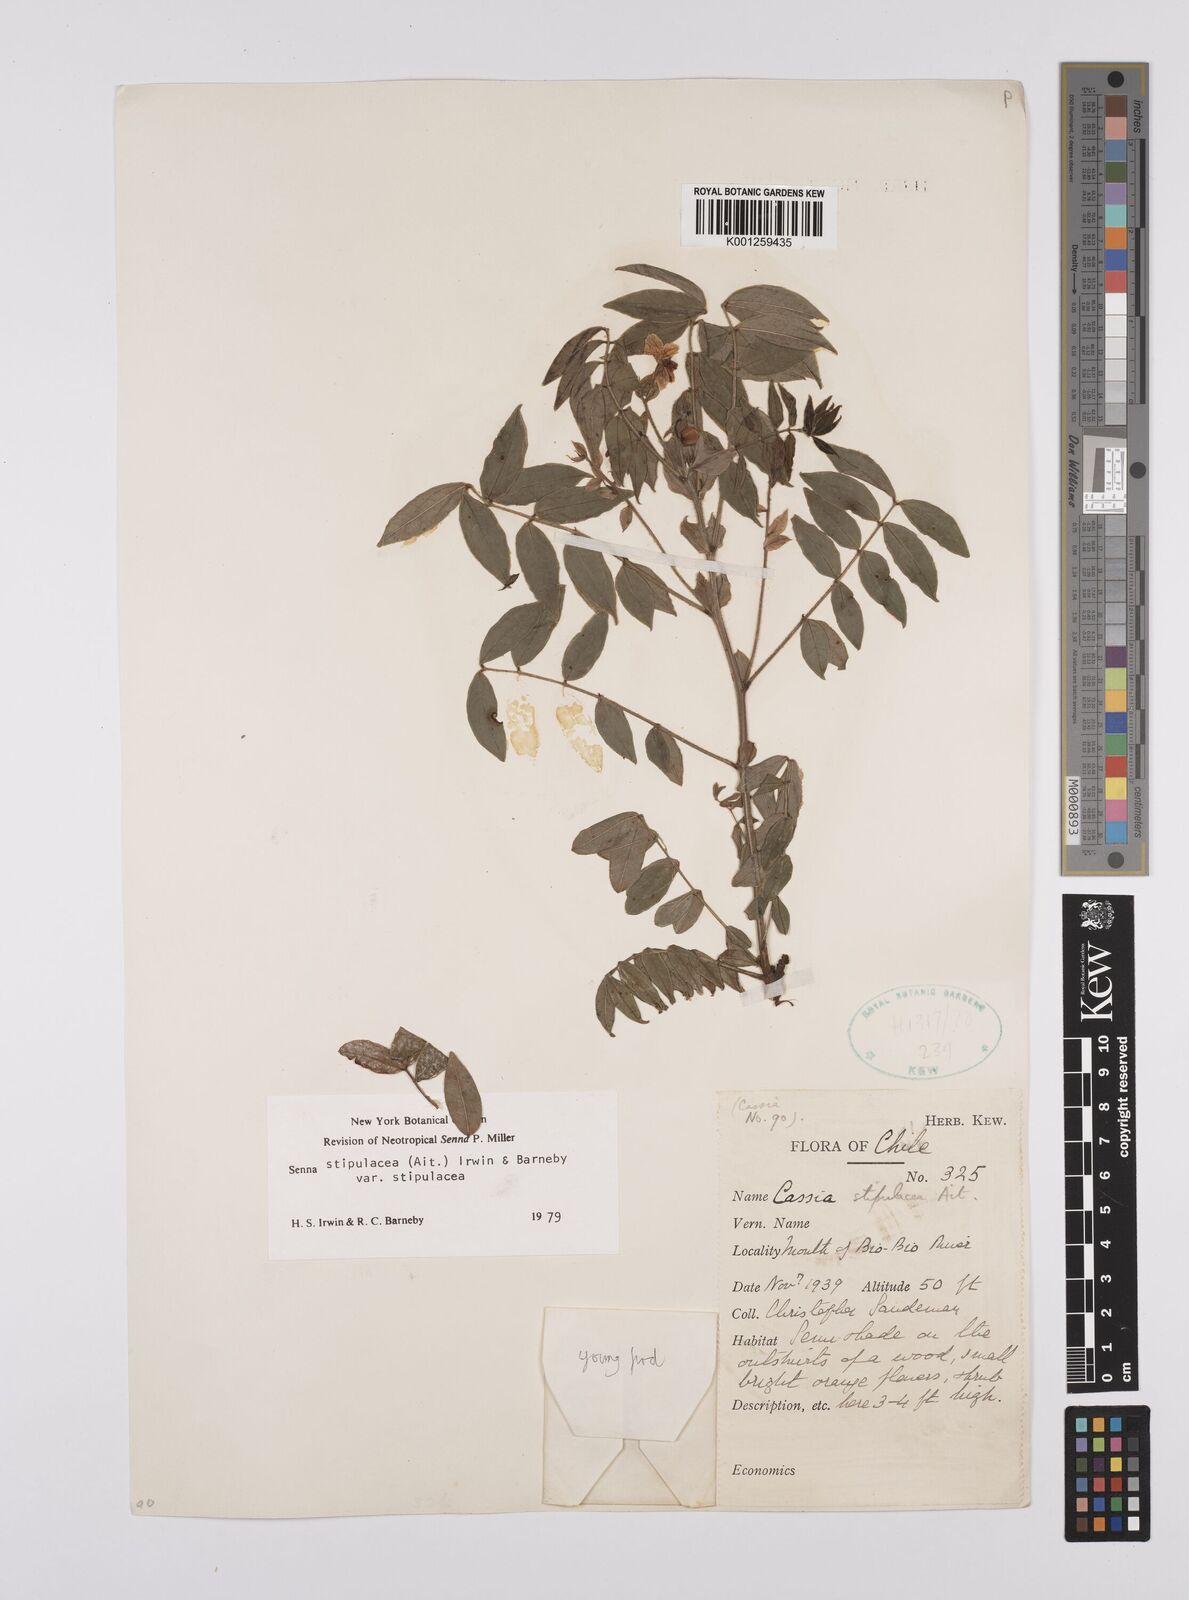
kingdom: Plantae
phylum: Tracheophyta
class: Magnoliopsida
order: Fabales
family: Fabaceae
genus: Senna
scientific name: Senna stipulacea
